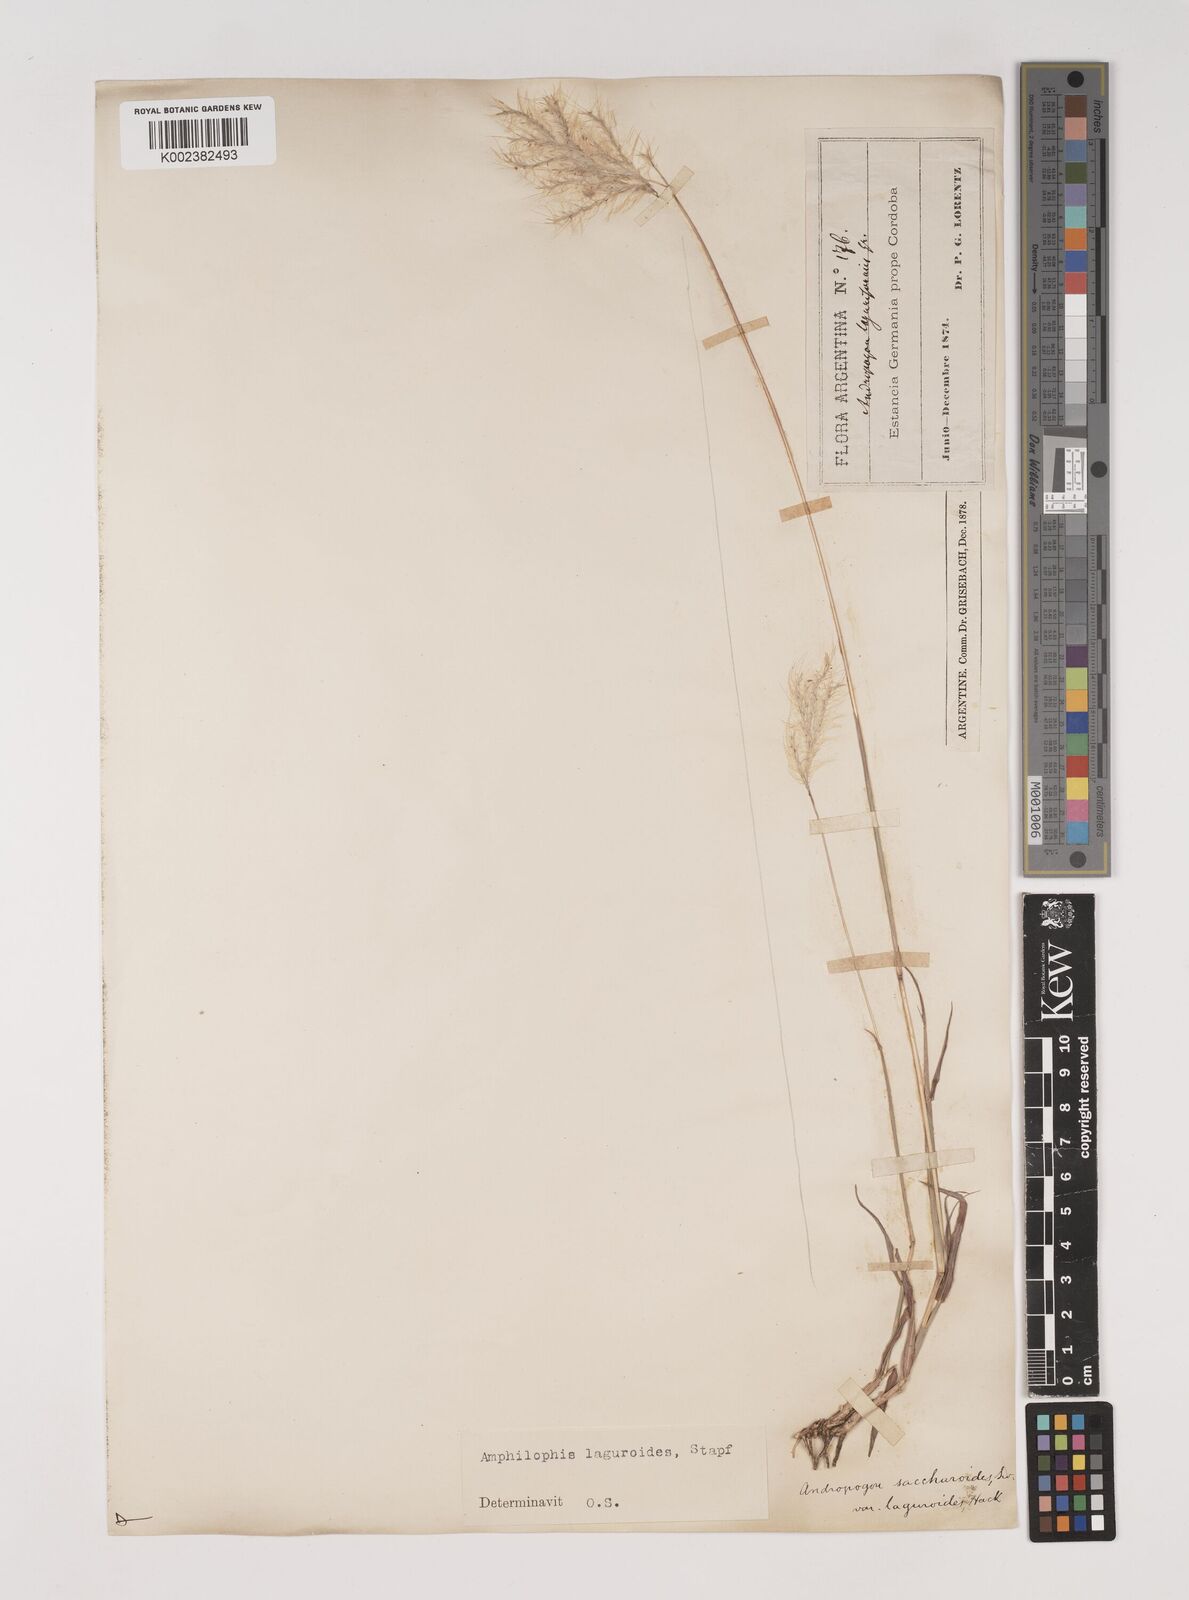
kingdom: Plantae
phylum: Tracheophyta
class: Liliopsida
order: Poales
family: Poaceae
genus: Bothriochloa
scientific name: Bothriochloa laguroides
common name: Silver bluestem
